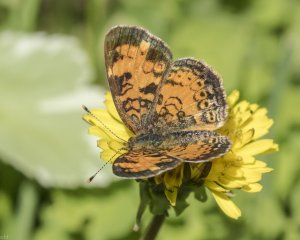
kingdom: Animalia
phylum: Arthropoda
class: Insecta
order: Lepidoptera
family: Nymphalidae
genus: Phyciodes
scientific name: Phyciodes tharos
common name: Northern Crescent
